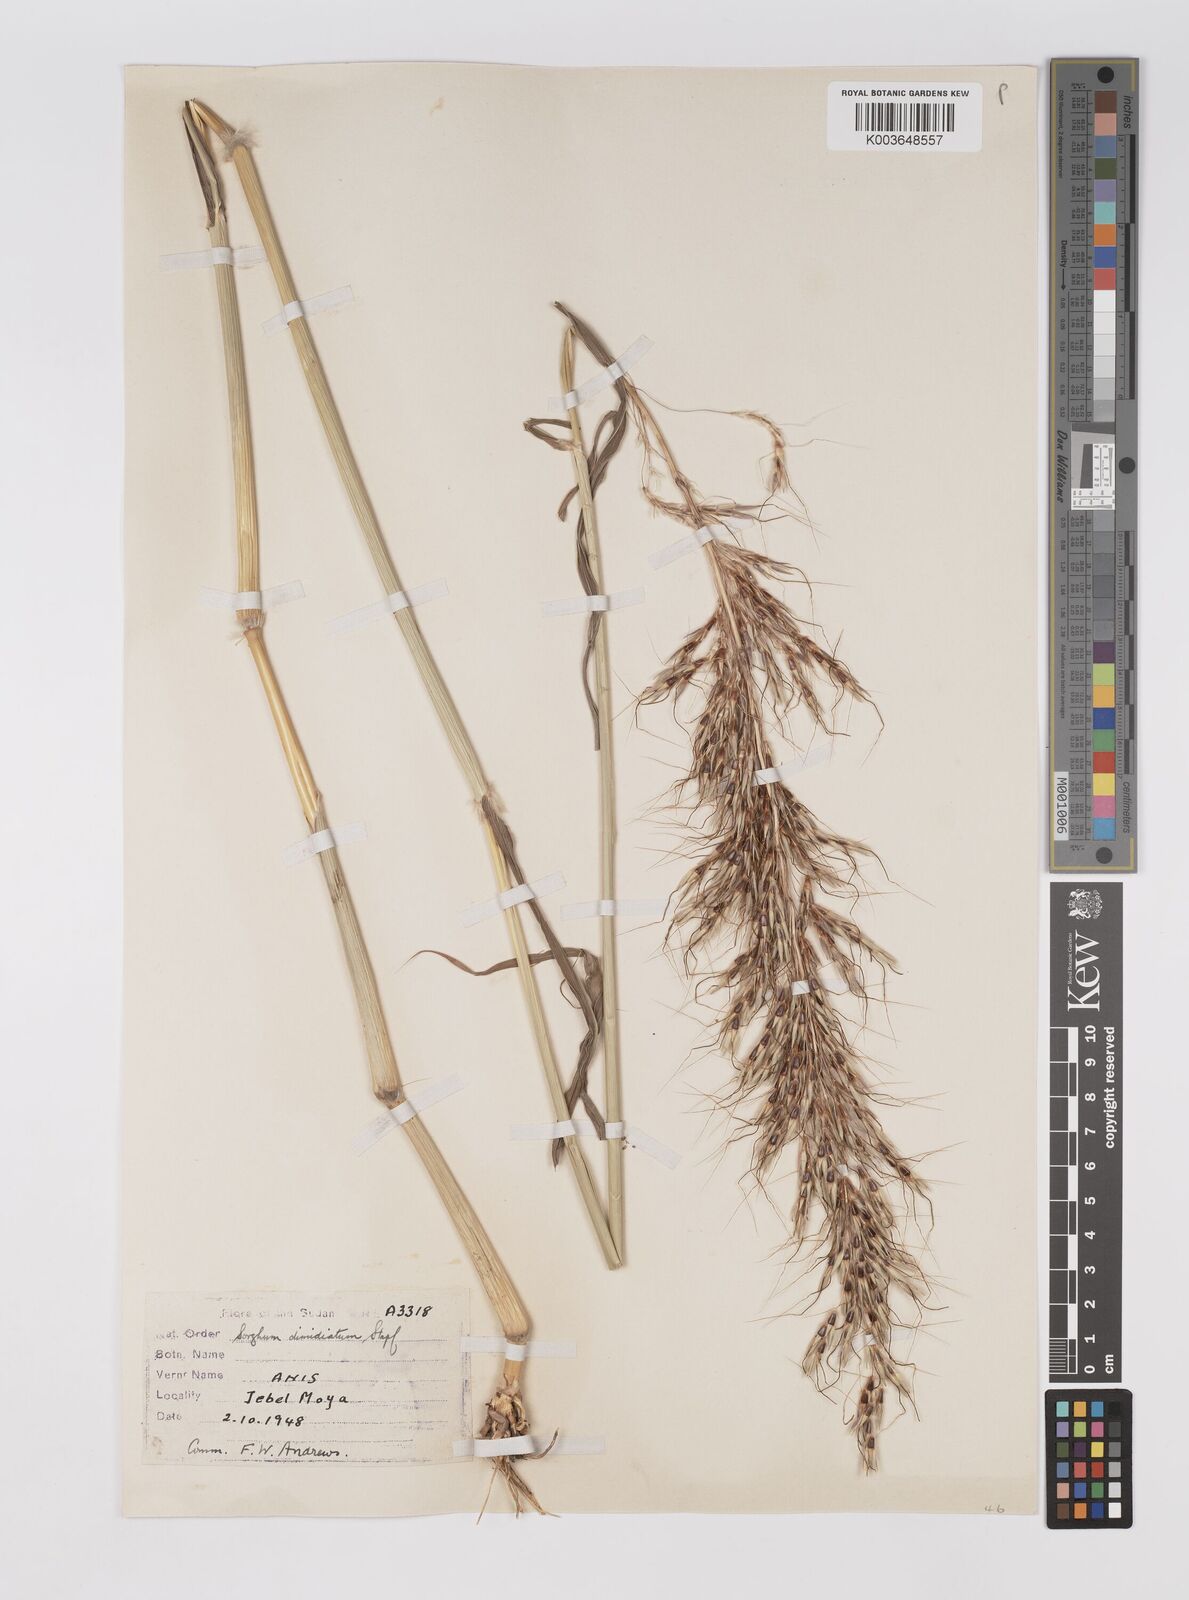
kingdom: Plantae
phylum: Tracheophyta
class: Liliopsida
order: Poales
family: Poaceae
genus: Sarga
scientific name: Sarga purpureosericea
